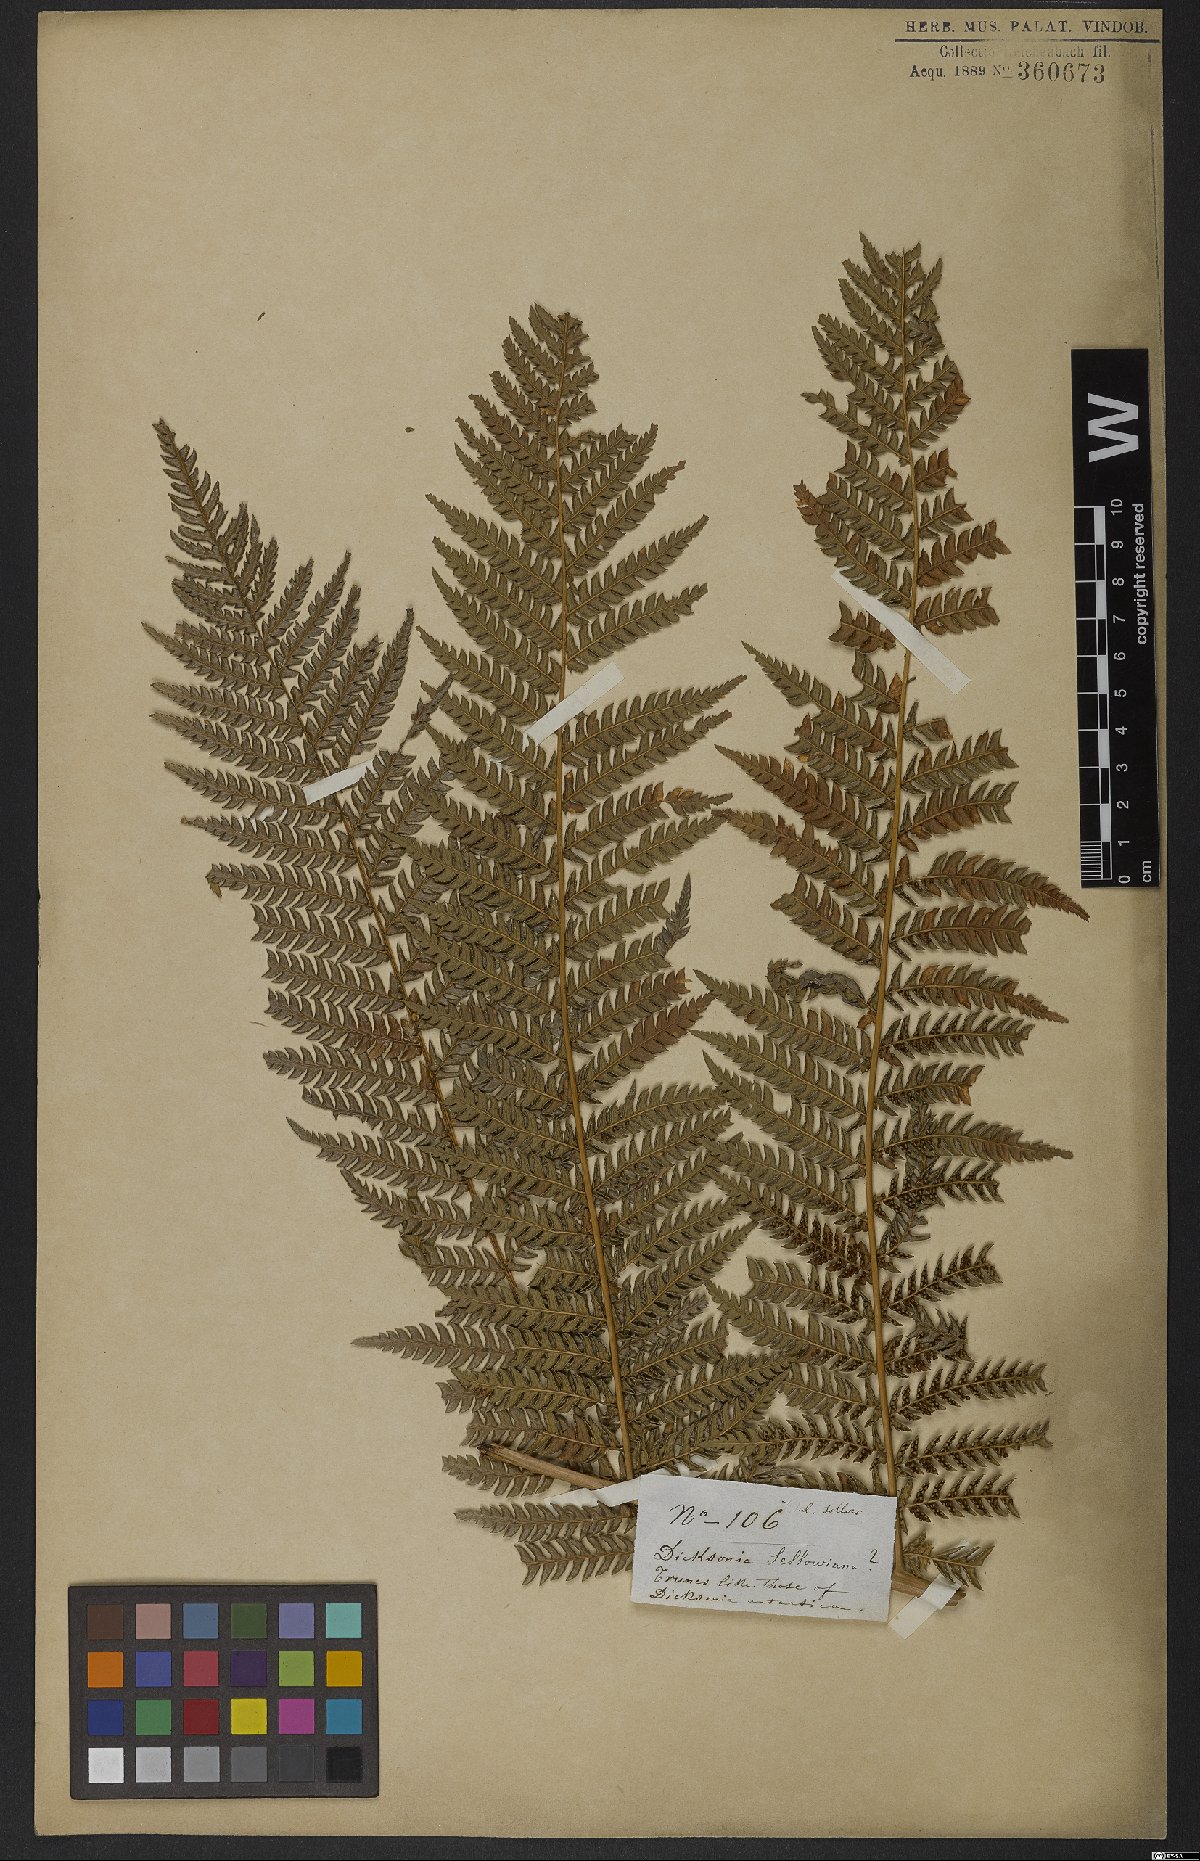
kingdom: Plantae
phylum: Tracheophyta
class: Polypodiopsida
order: Cyatheales
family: Dicksoniaceae
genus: Dicksonia
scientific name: Dicksonia sellowiana
